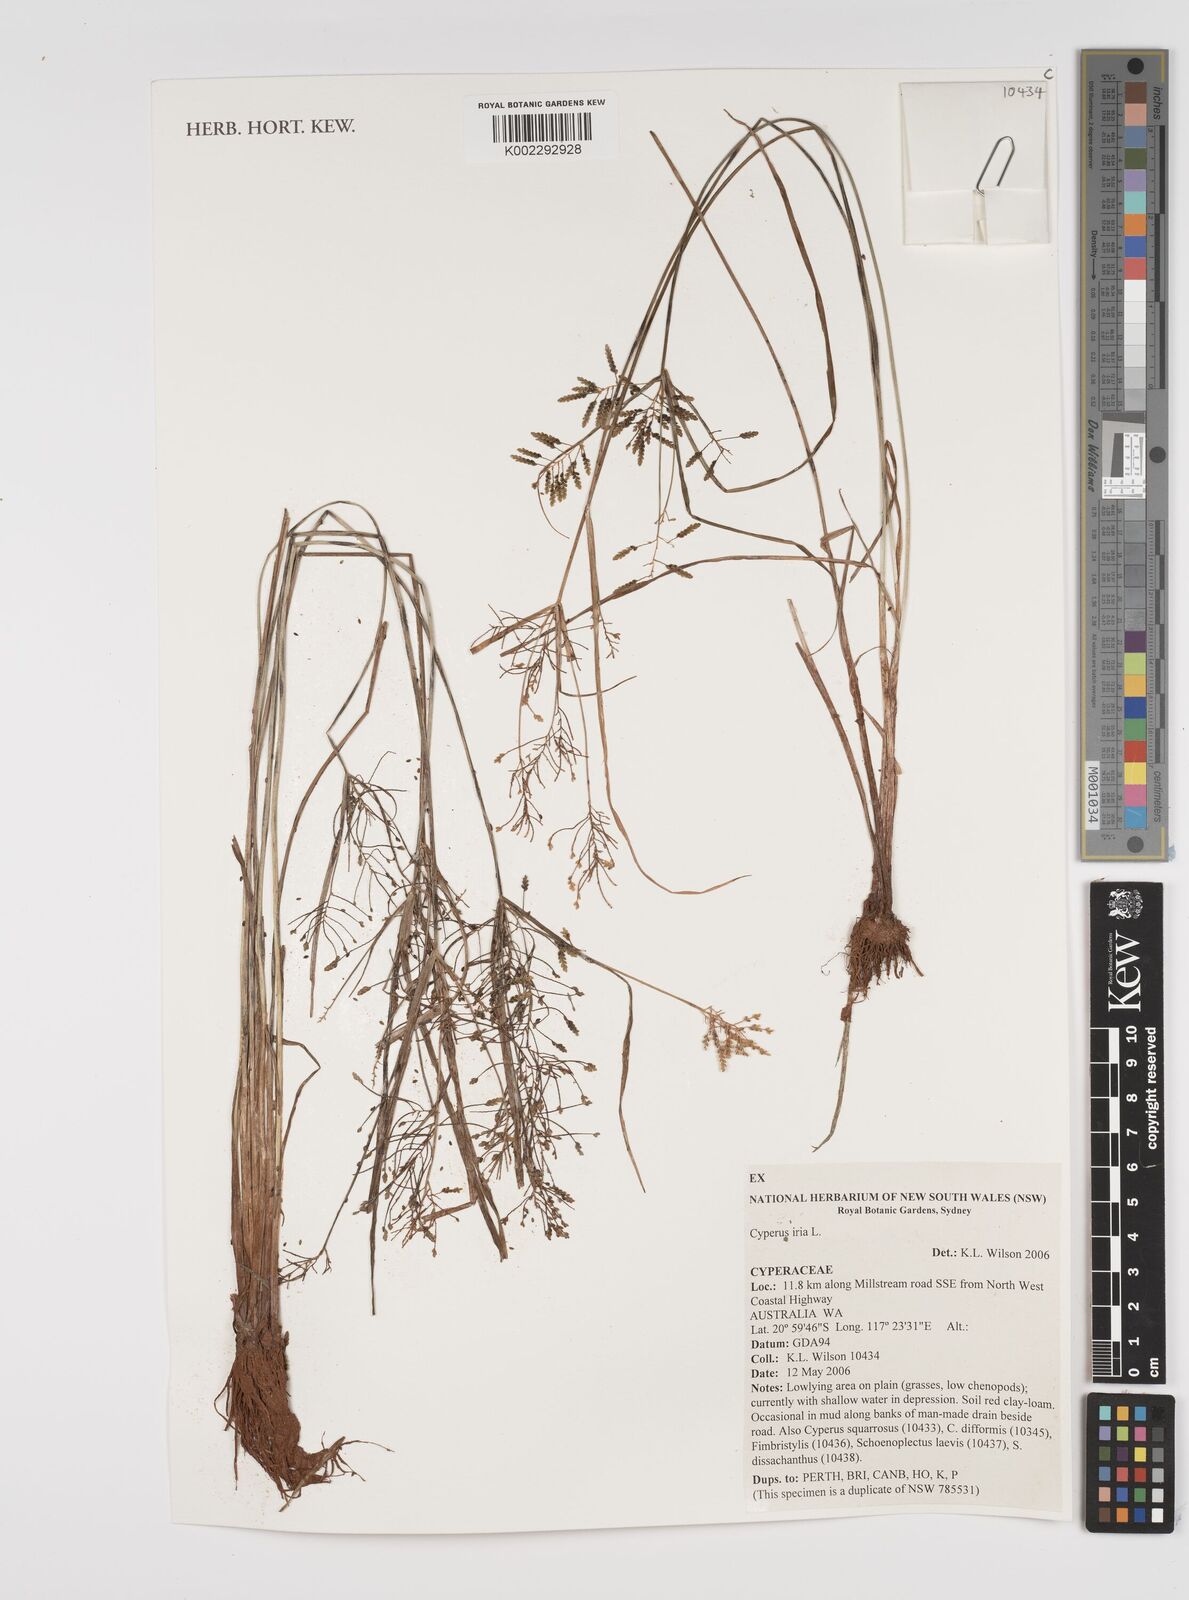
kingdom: Plantae
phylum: Tracheophyta
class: Liliopsida
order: Poales
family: Cyperaceae
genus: Cyperus
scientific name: Cyperus iria
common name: Ricefield flatsedge
